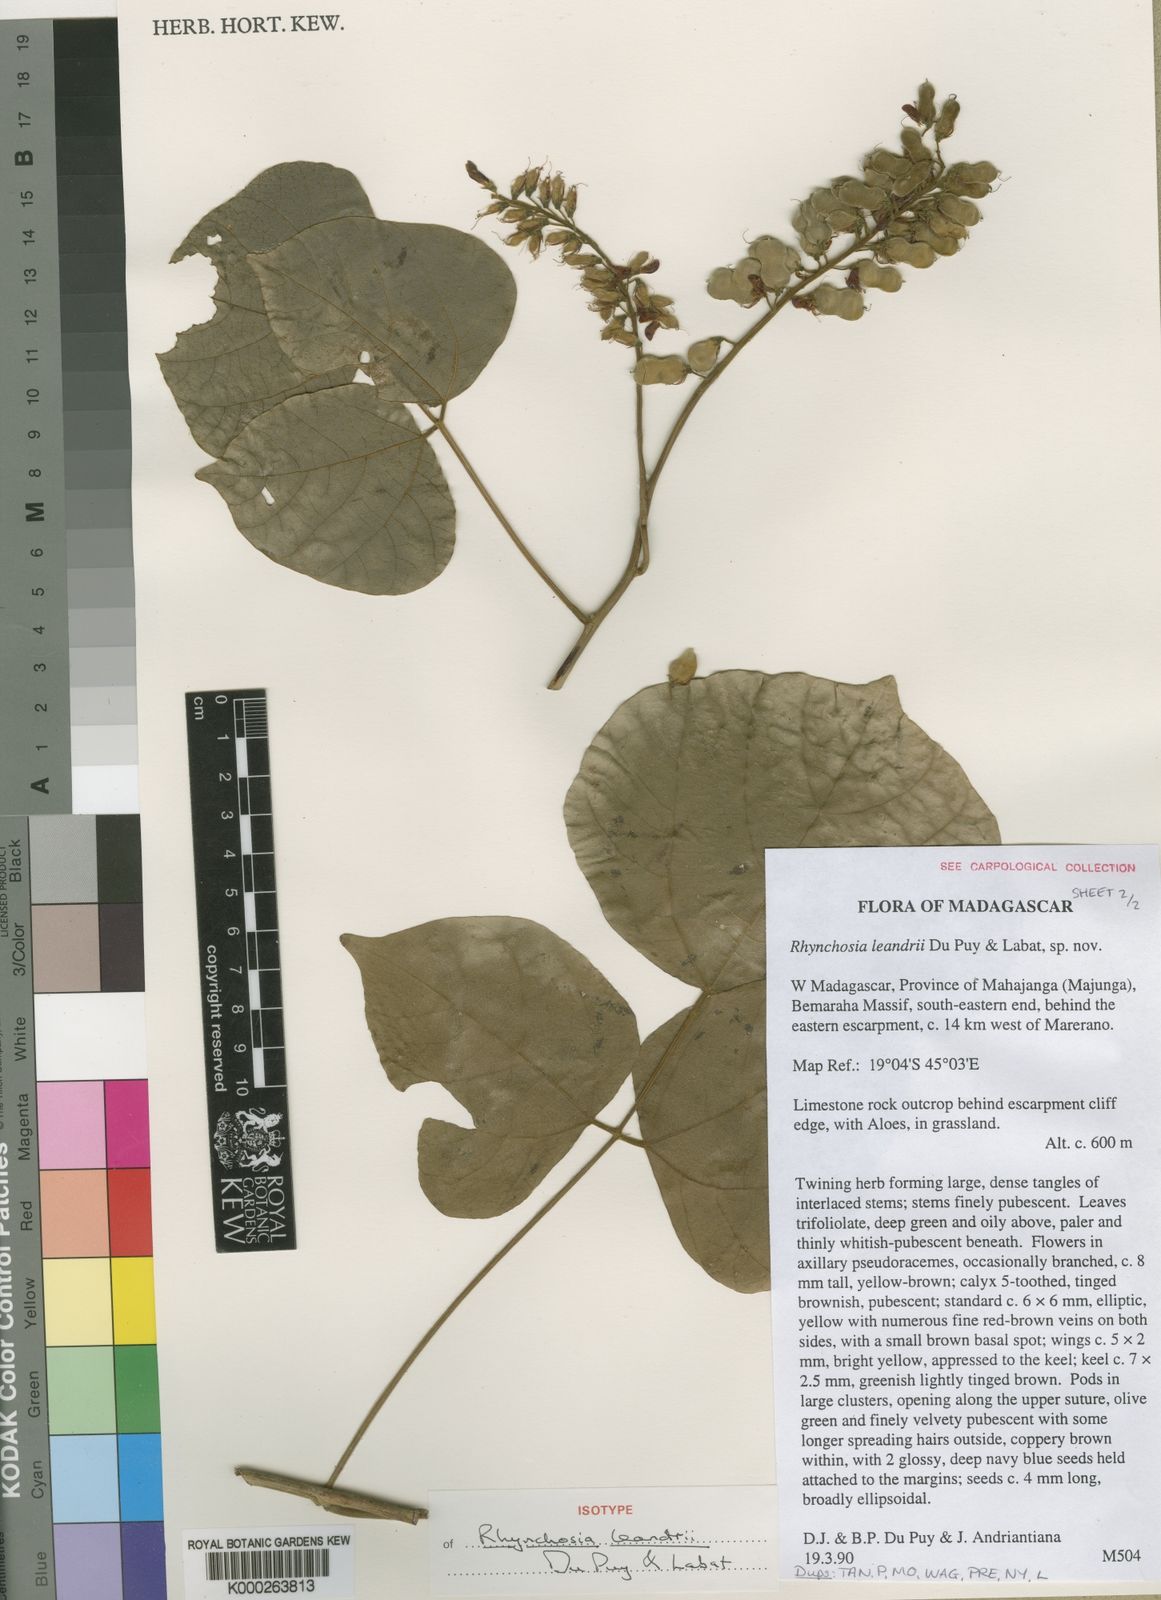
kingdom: Plantae
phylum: Tracheophyta
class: Magnoliopsida
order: Fabales
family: Fabaceae
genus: Rhynchosia
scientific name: Rhynchosia leandrii
